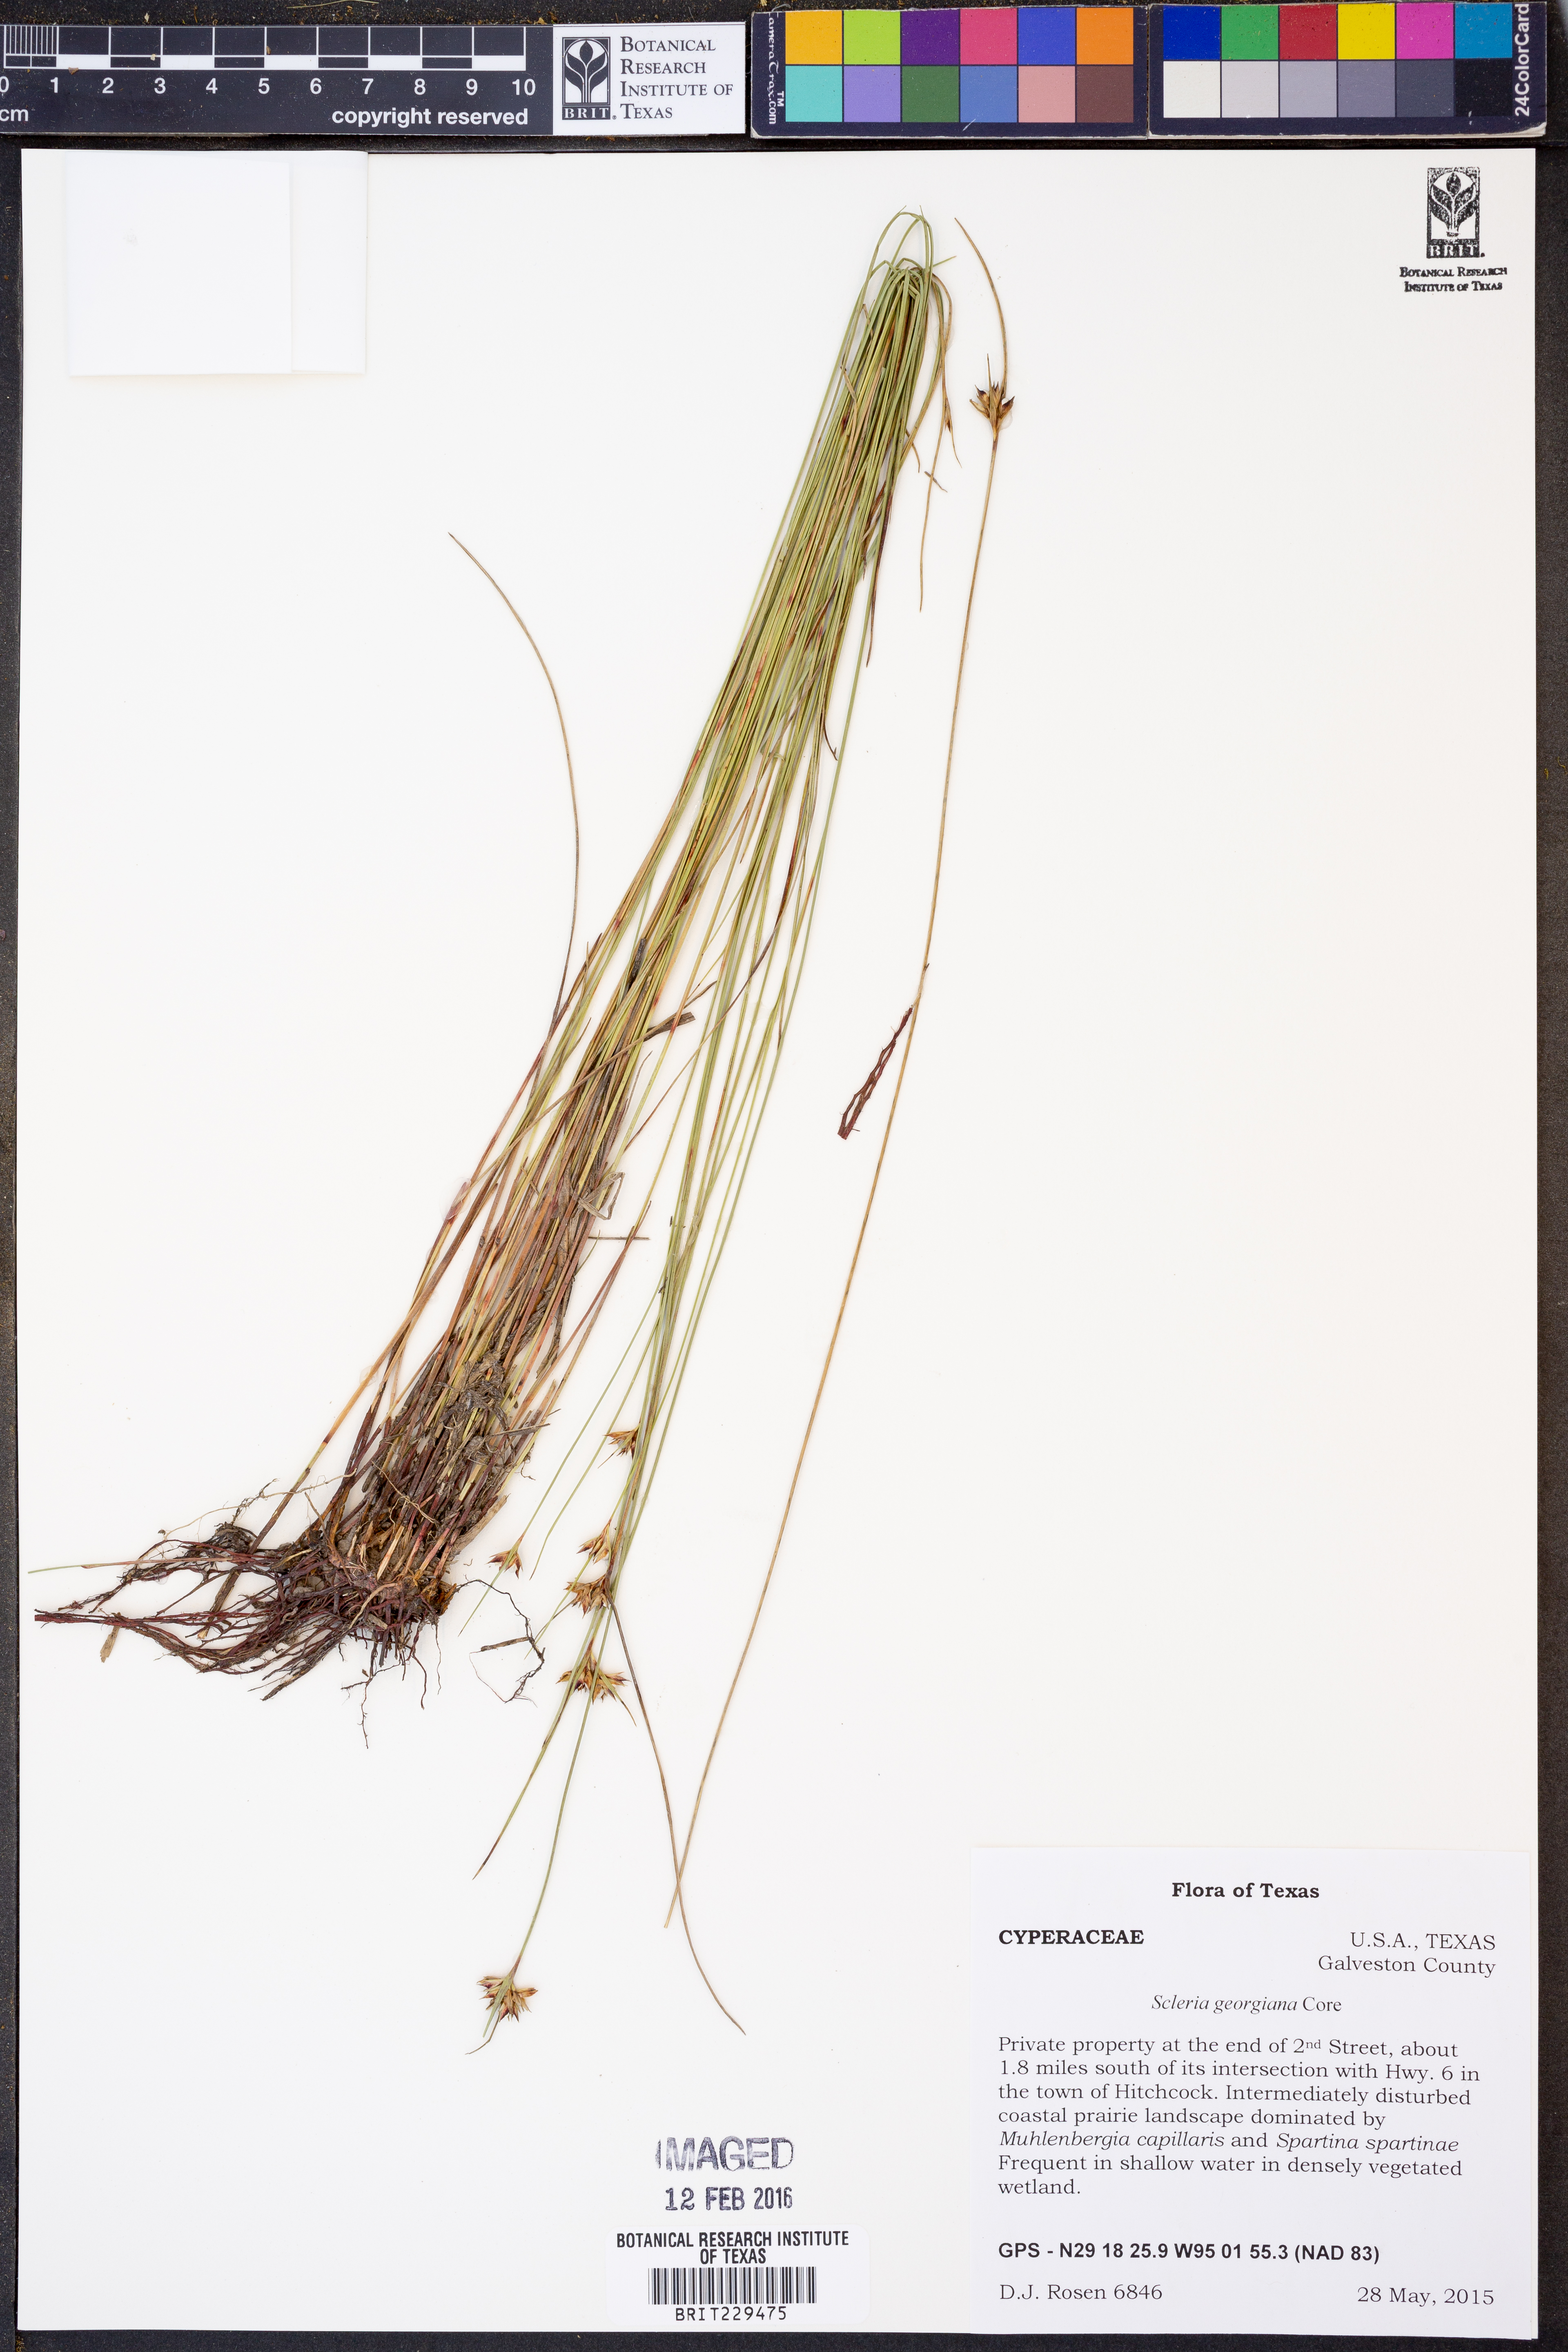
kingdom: Plantae
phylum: Tracheophyta
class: Liliopsida
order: Poales
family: Cyperaceae
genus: Scleria
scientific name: Scleria georgiana
